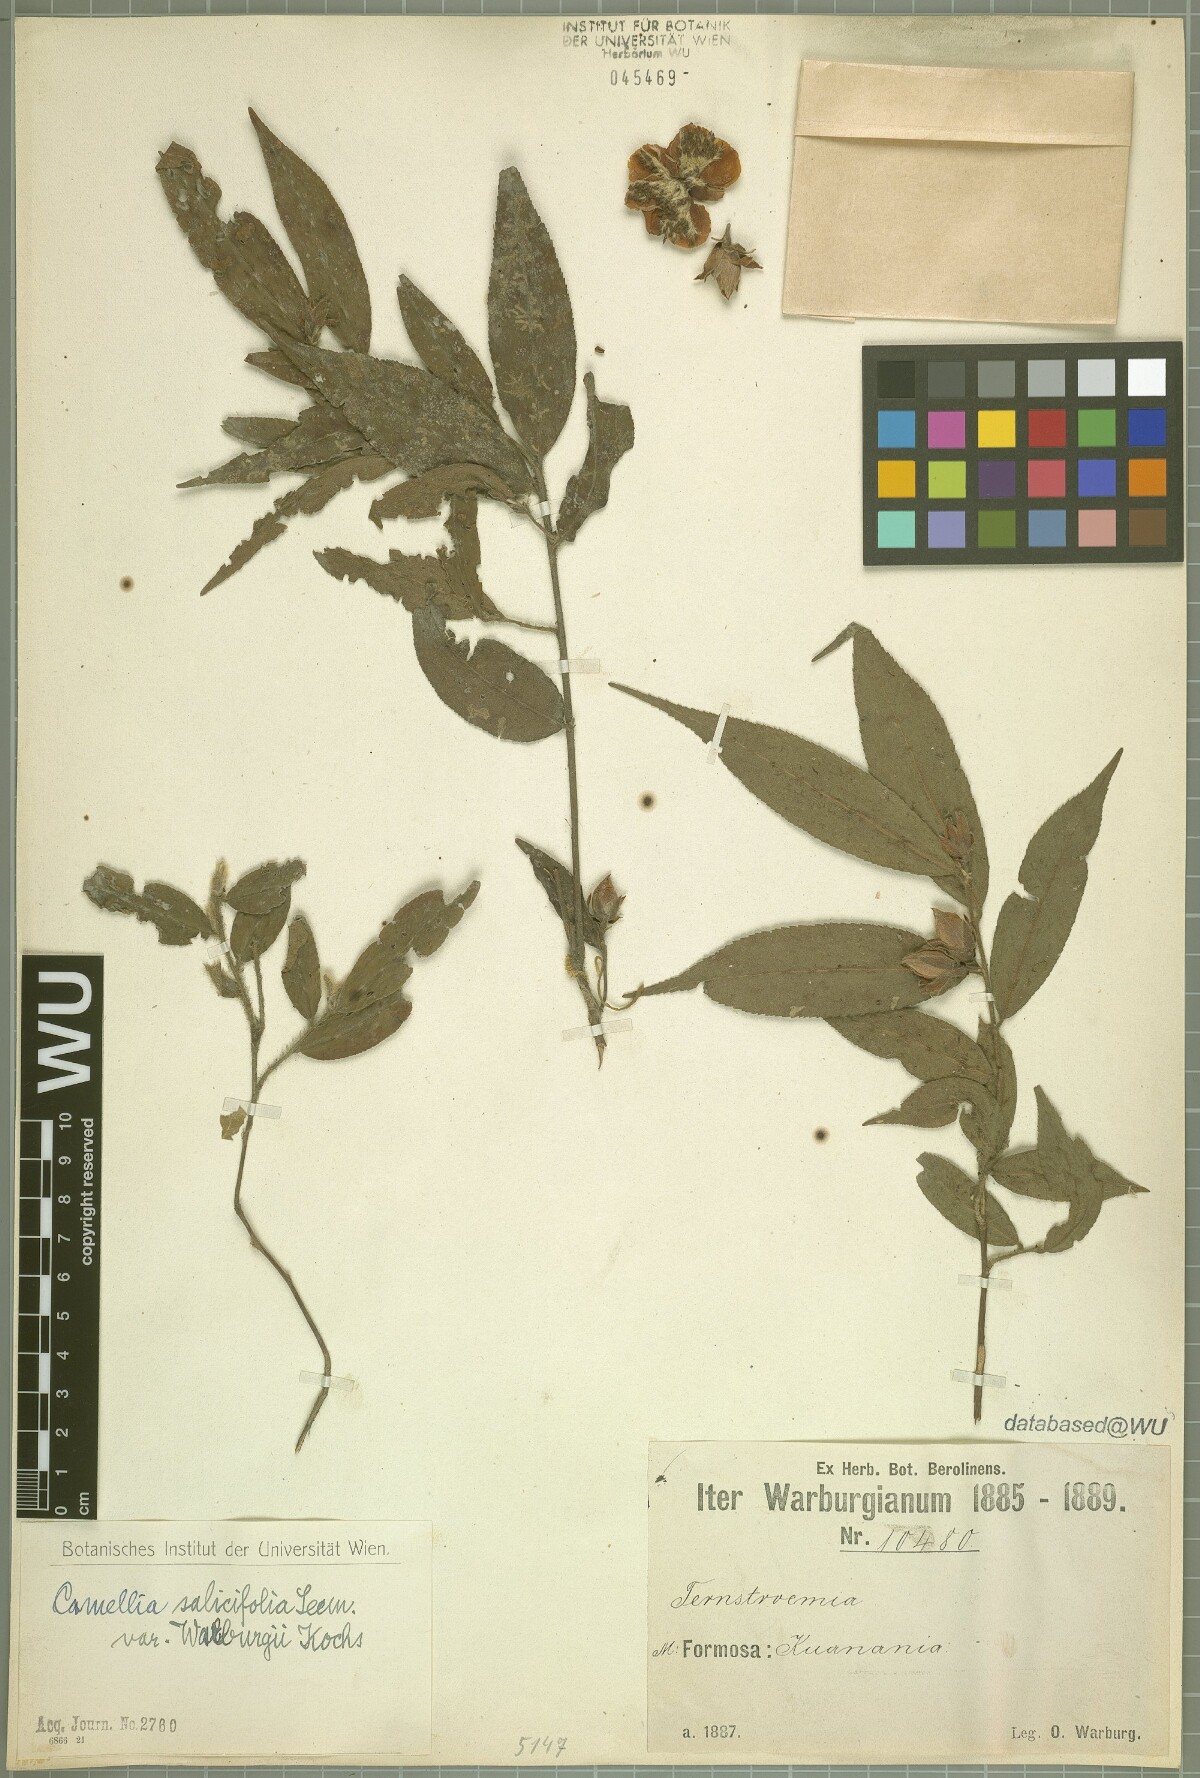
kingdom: Plantae
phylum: Tracheophyta
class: Magnoliopsida
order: Ericales
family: Theaceae
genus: Camellia
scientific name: Camellia salicifolia
